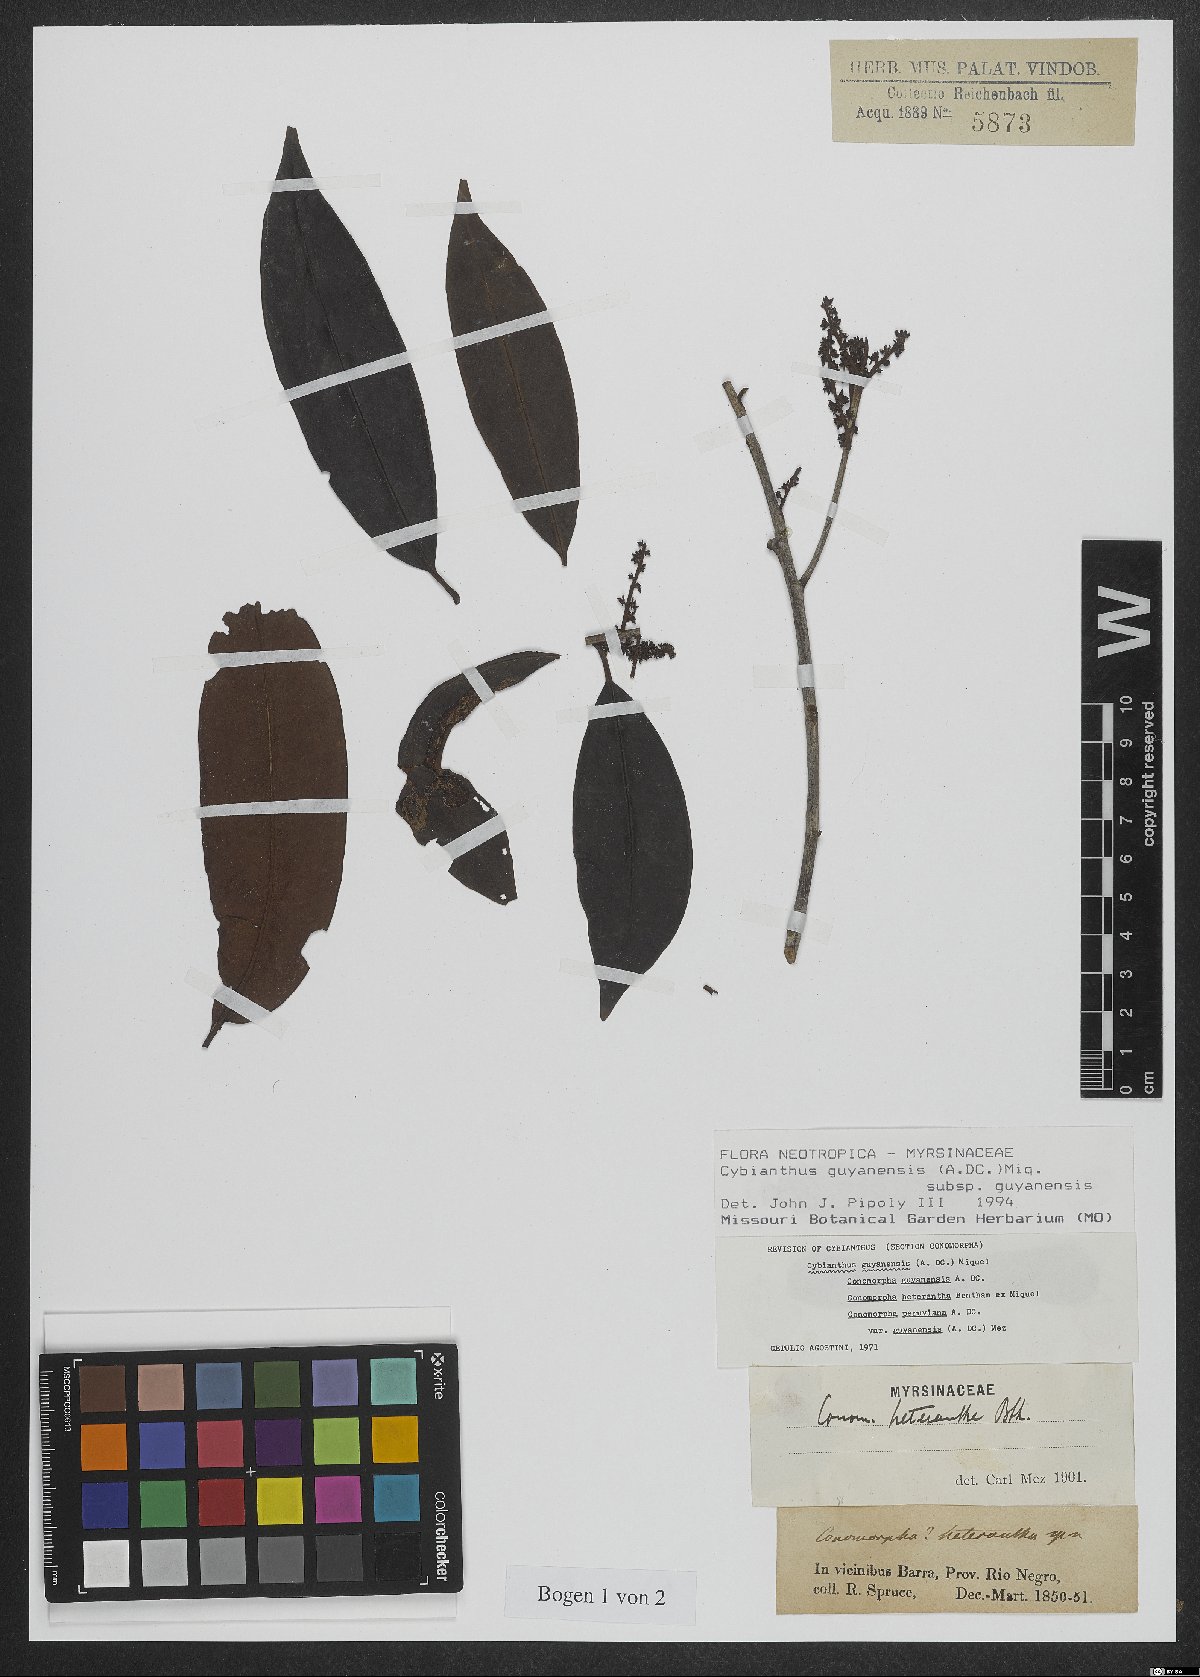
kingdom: Plantae
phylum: Tracheophyta
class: Magnoliopsida
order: Ericales
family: Primulaceae
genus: Cybianthus
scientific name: Cybianthus guyanensis
